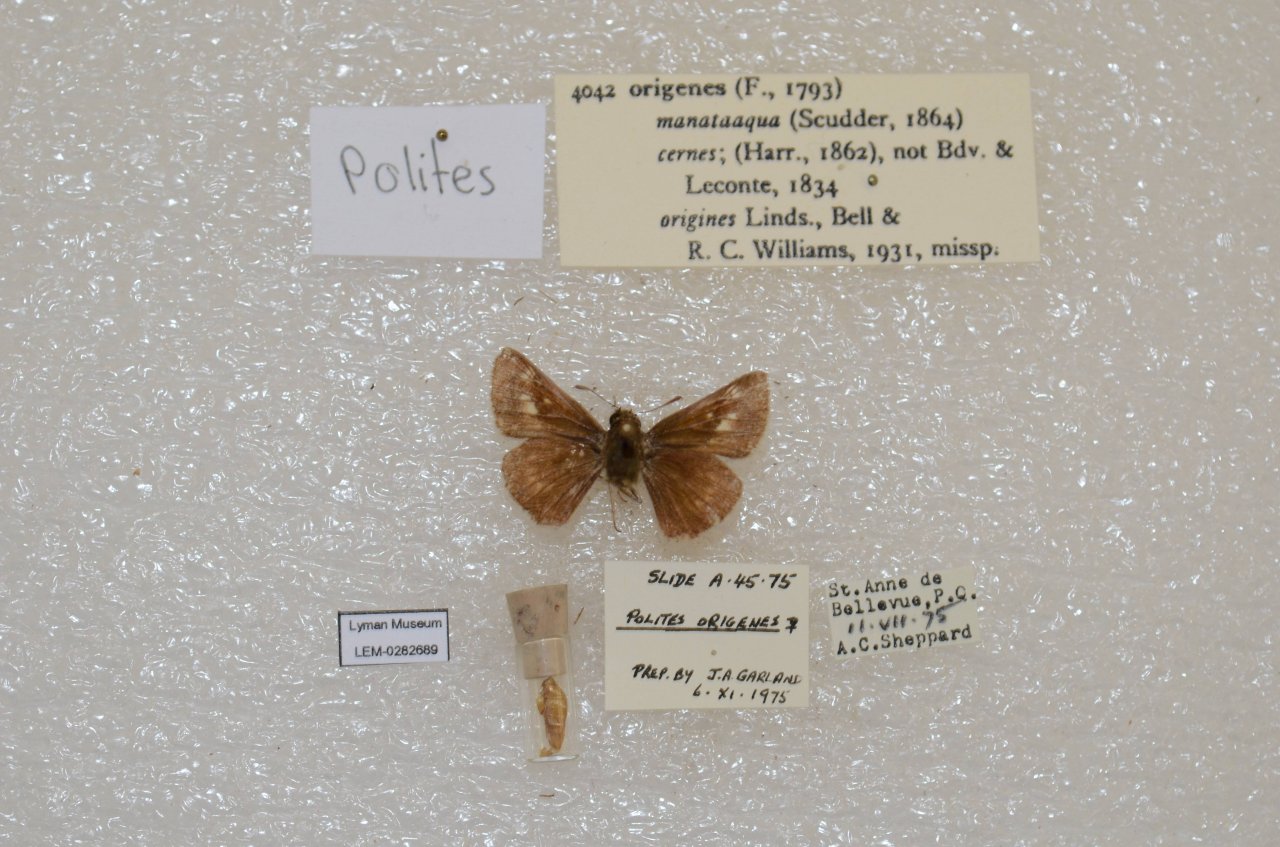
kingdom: Animalia
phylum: Arthropoda
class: Insecta
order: Lepidoptera
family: Hesperiidae
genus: Polites
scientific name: Polites
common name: Crossline Skipper
